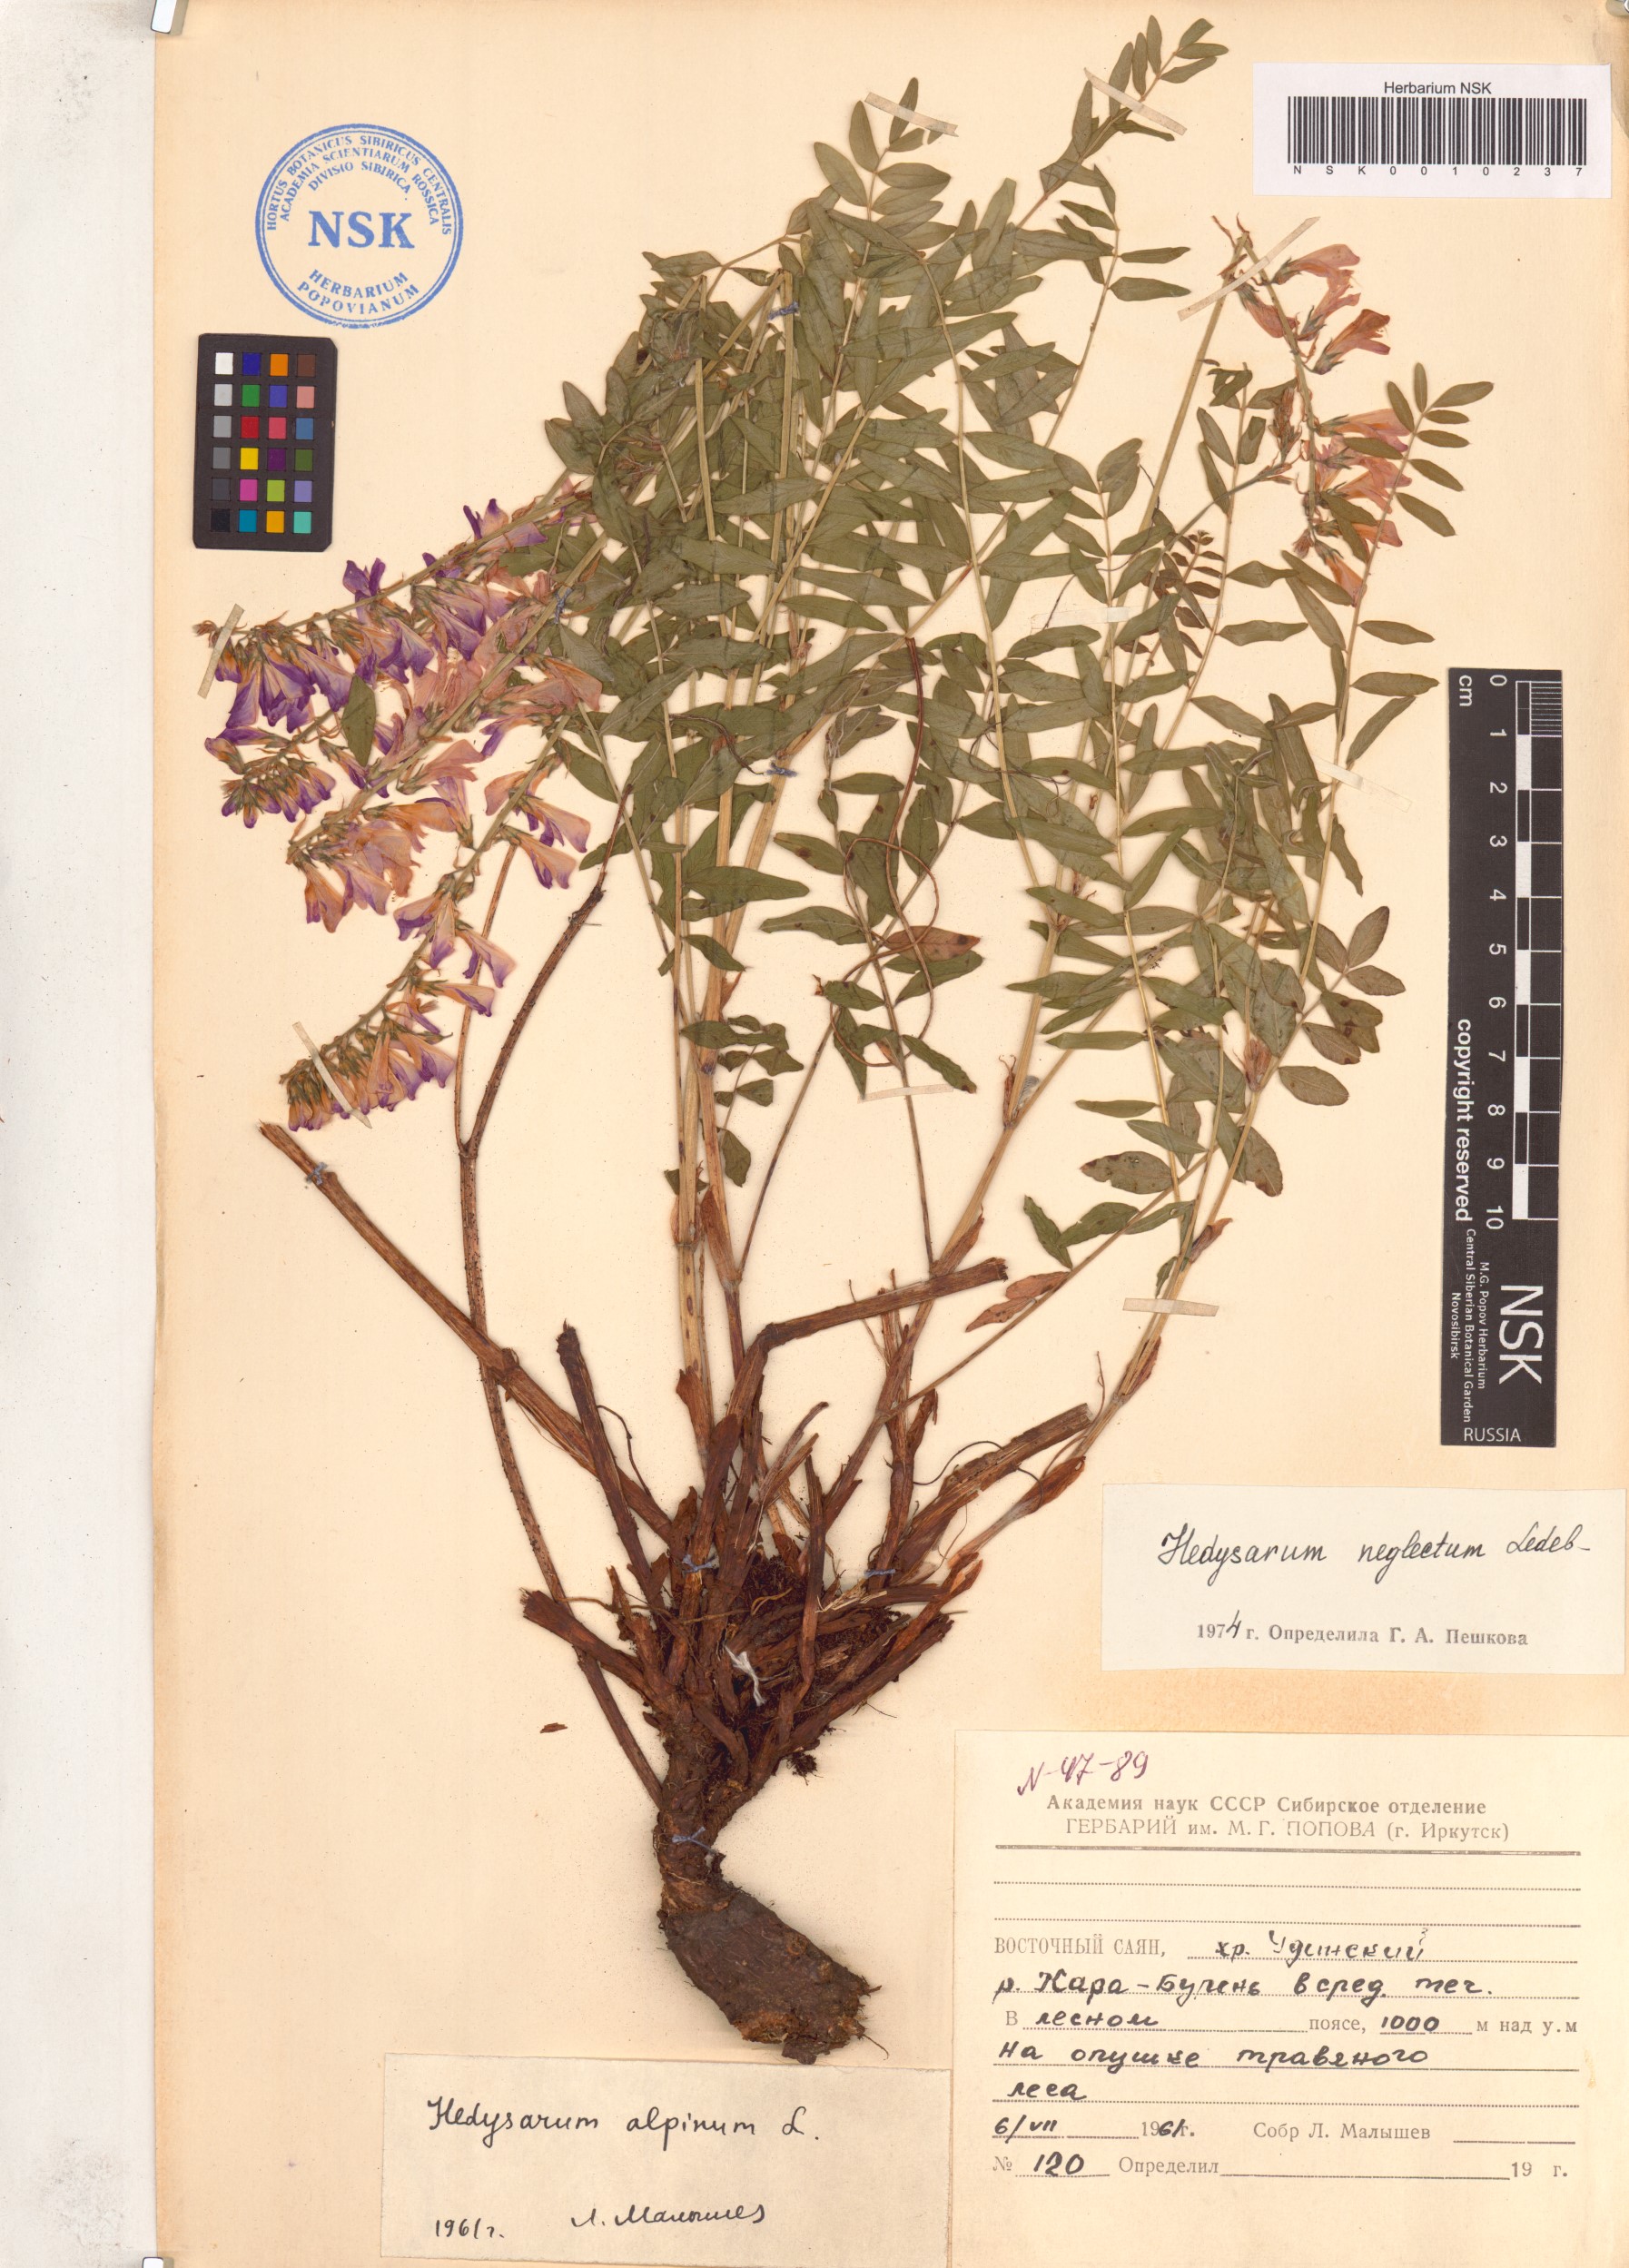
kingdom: Plantae
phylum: Tracheophyta
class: Magnoliopsida
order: Fabales
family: Fabaceae
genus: Hedysarum
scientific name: Hedysarum neglectum
